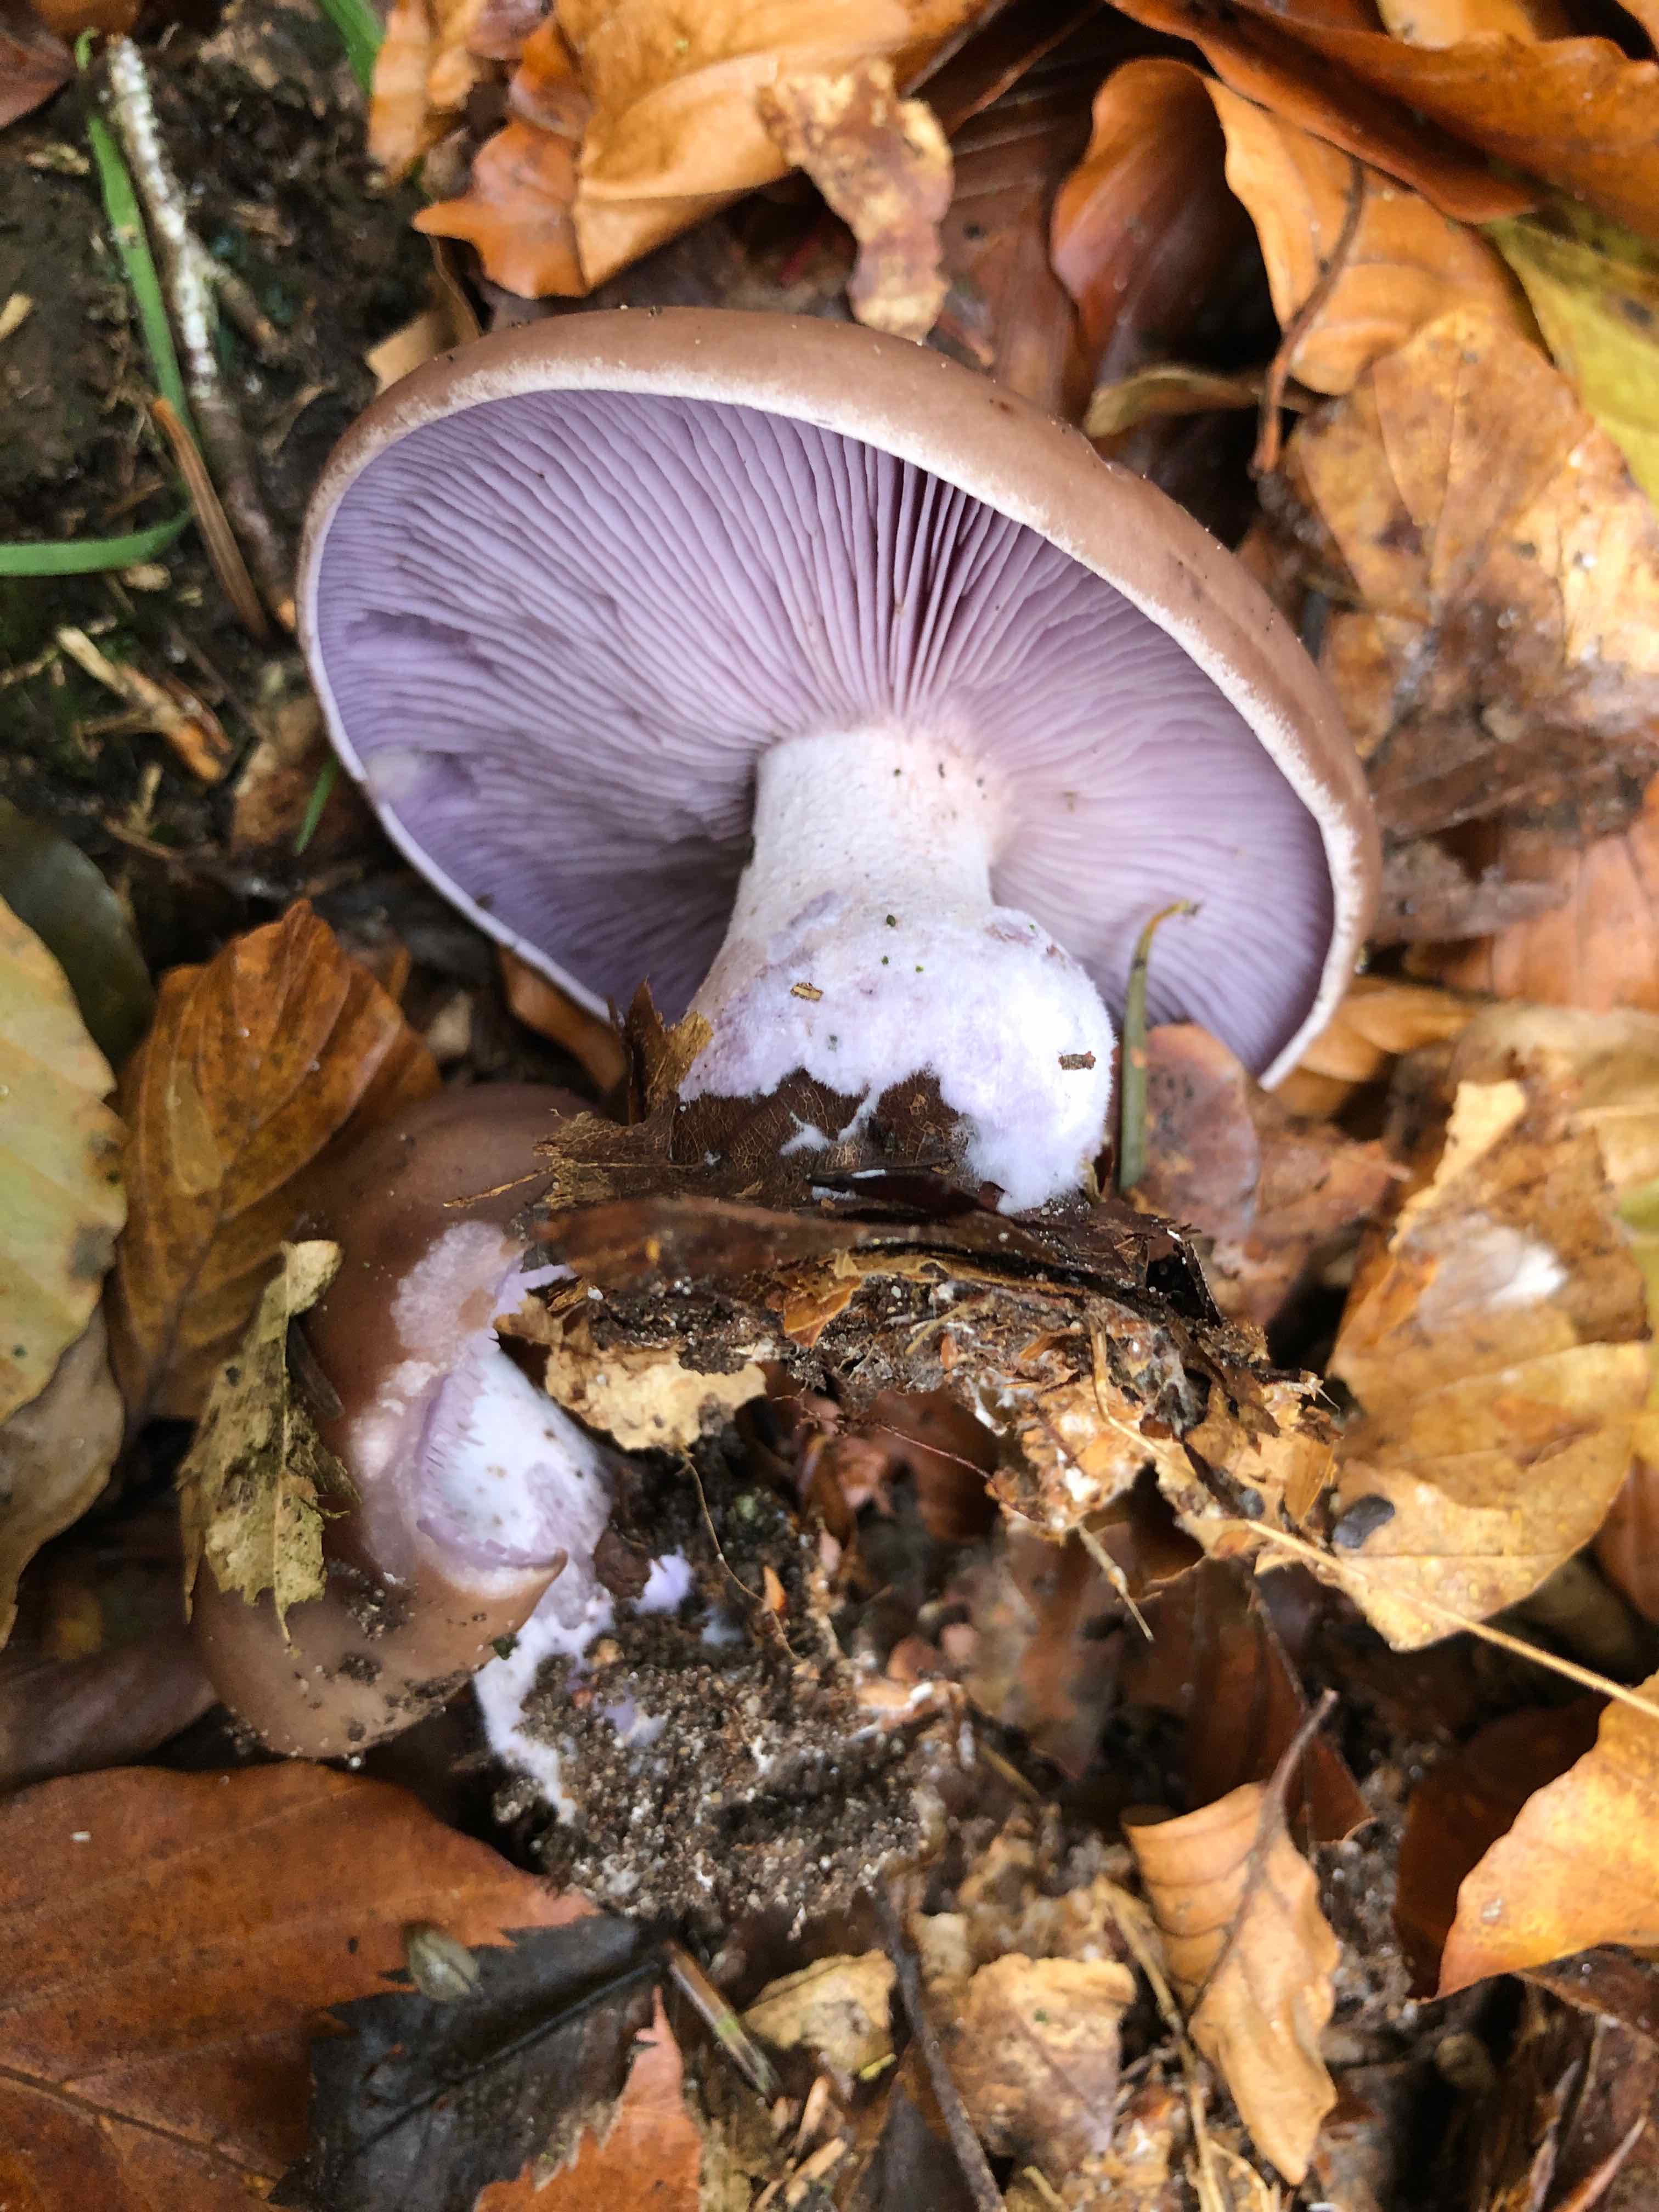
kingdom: Fungi
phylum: Basidiomycota
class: Agaricomycetes
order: Agaricales
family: Tricholomataceae
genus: Lepista
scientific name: Lepista nuda
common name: violet hekseringshat
